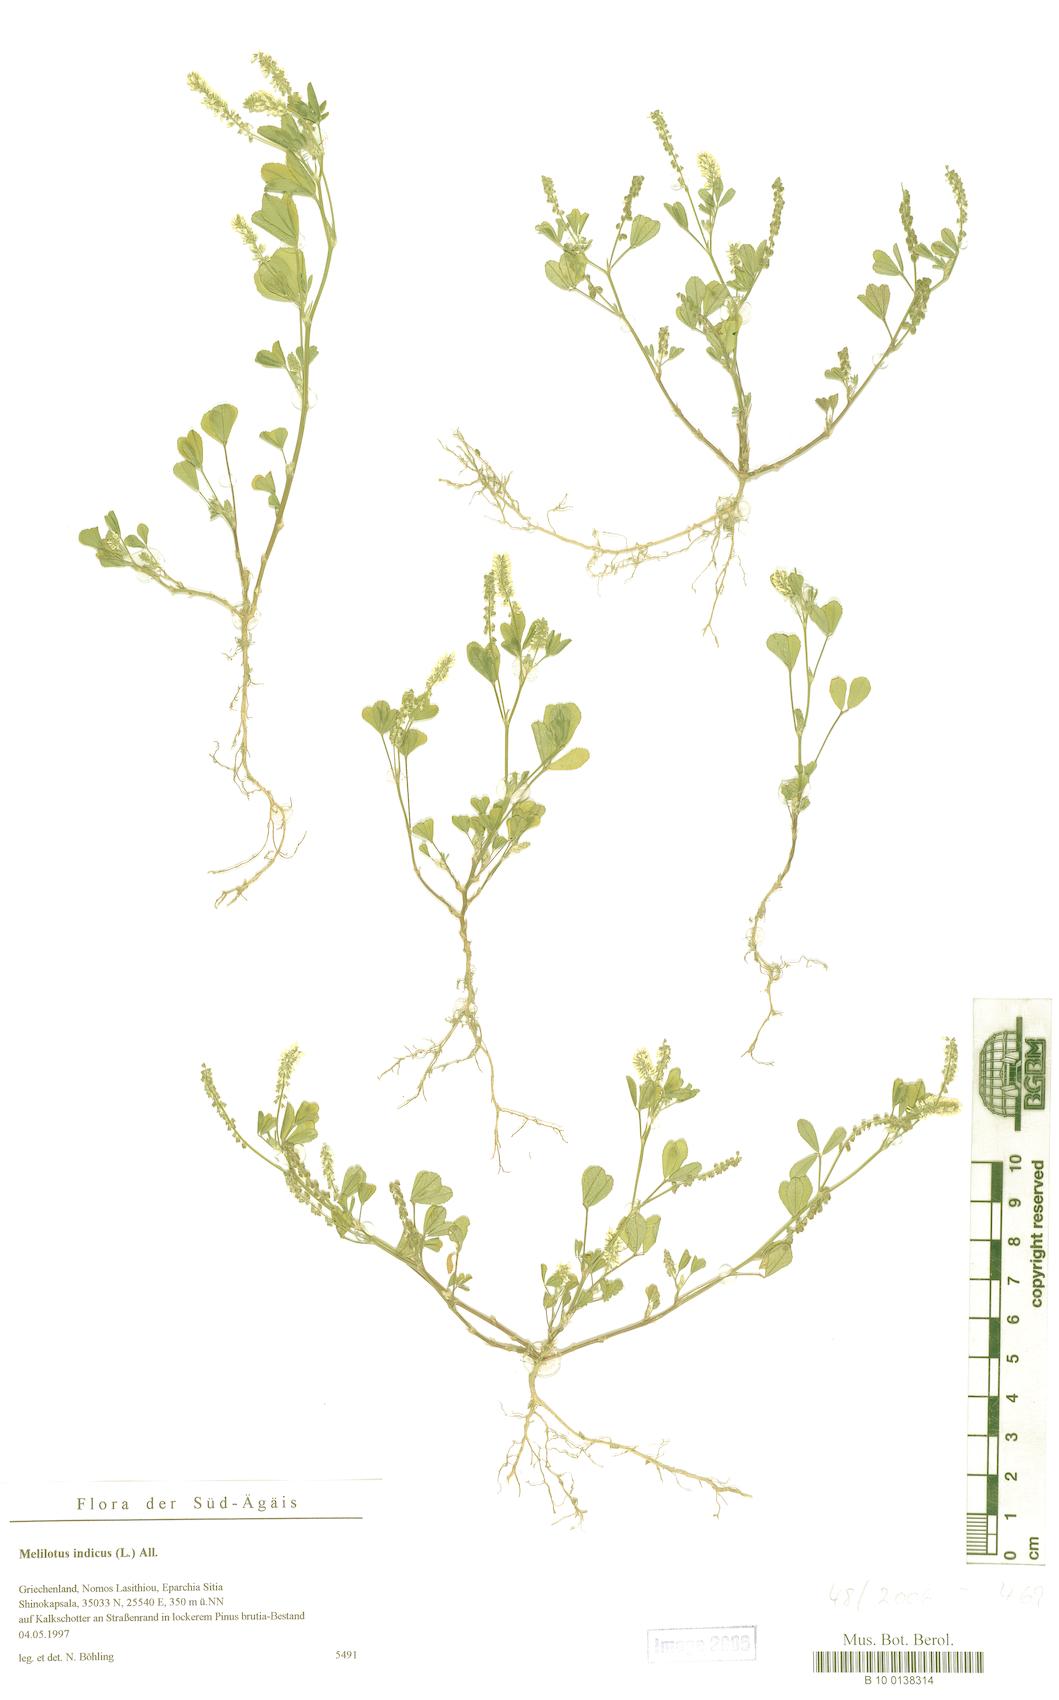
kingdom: Plantae
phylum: Tracheophyta
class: Magnoliopsida
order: Fabales
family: Fabaceae
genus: Melilotus
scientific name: Melilotus indicus
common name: Small melilot
